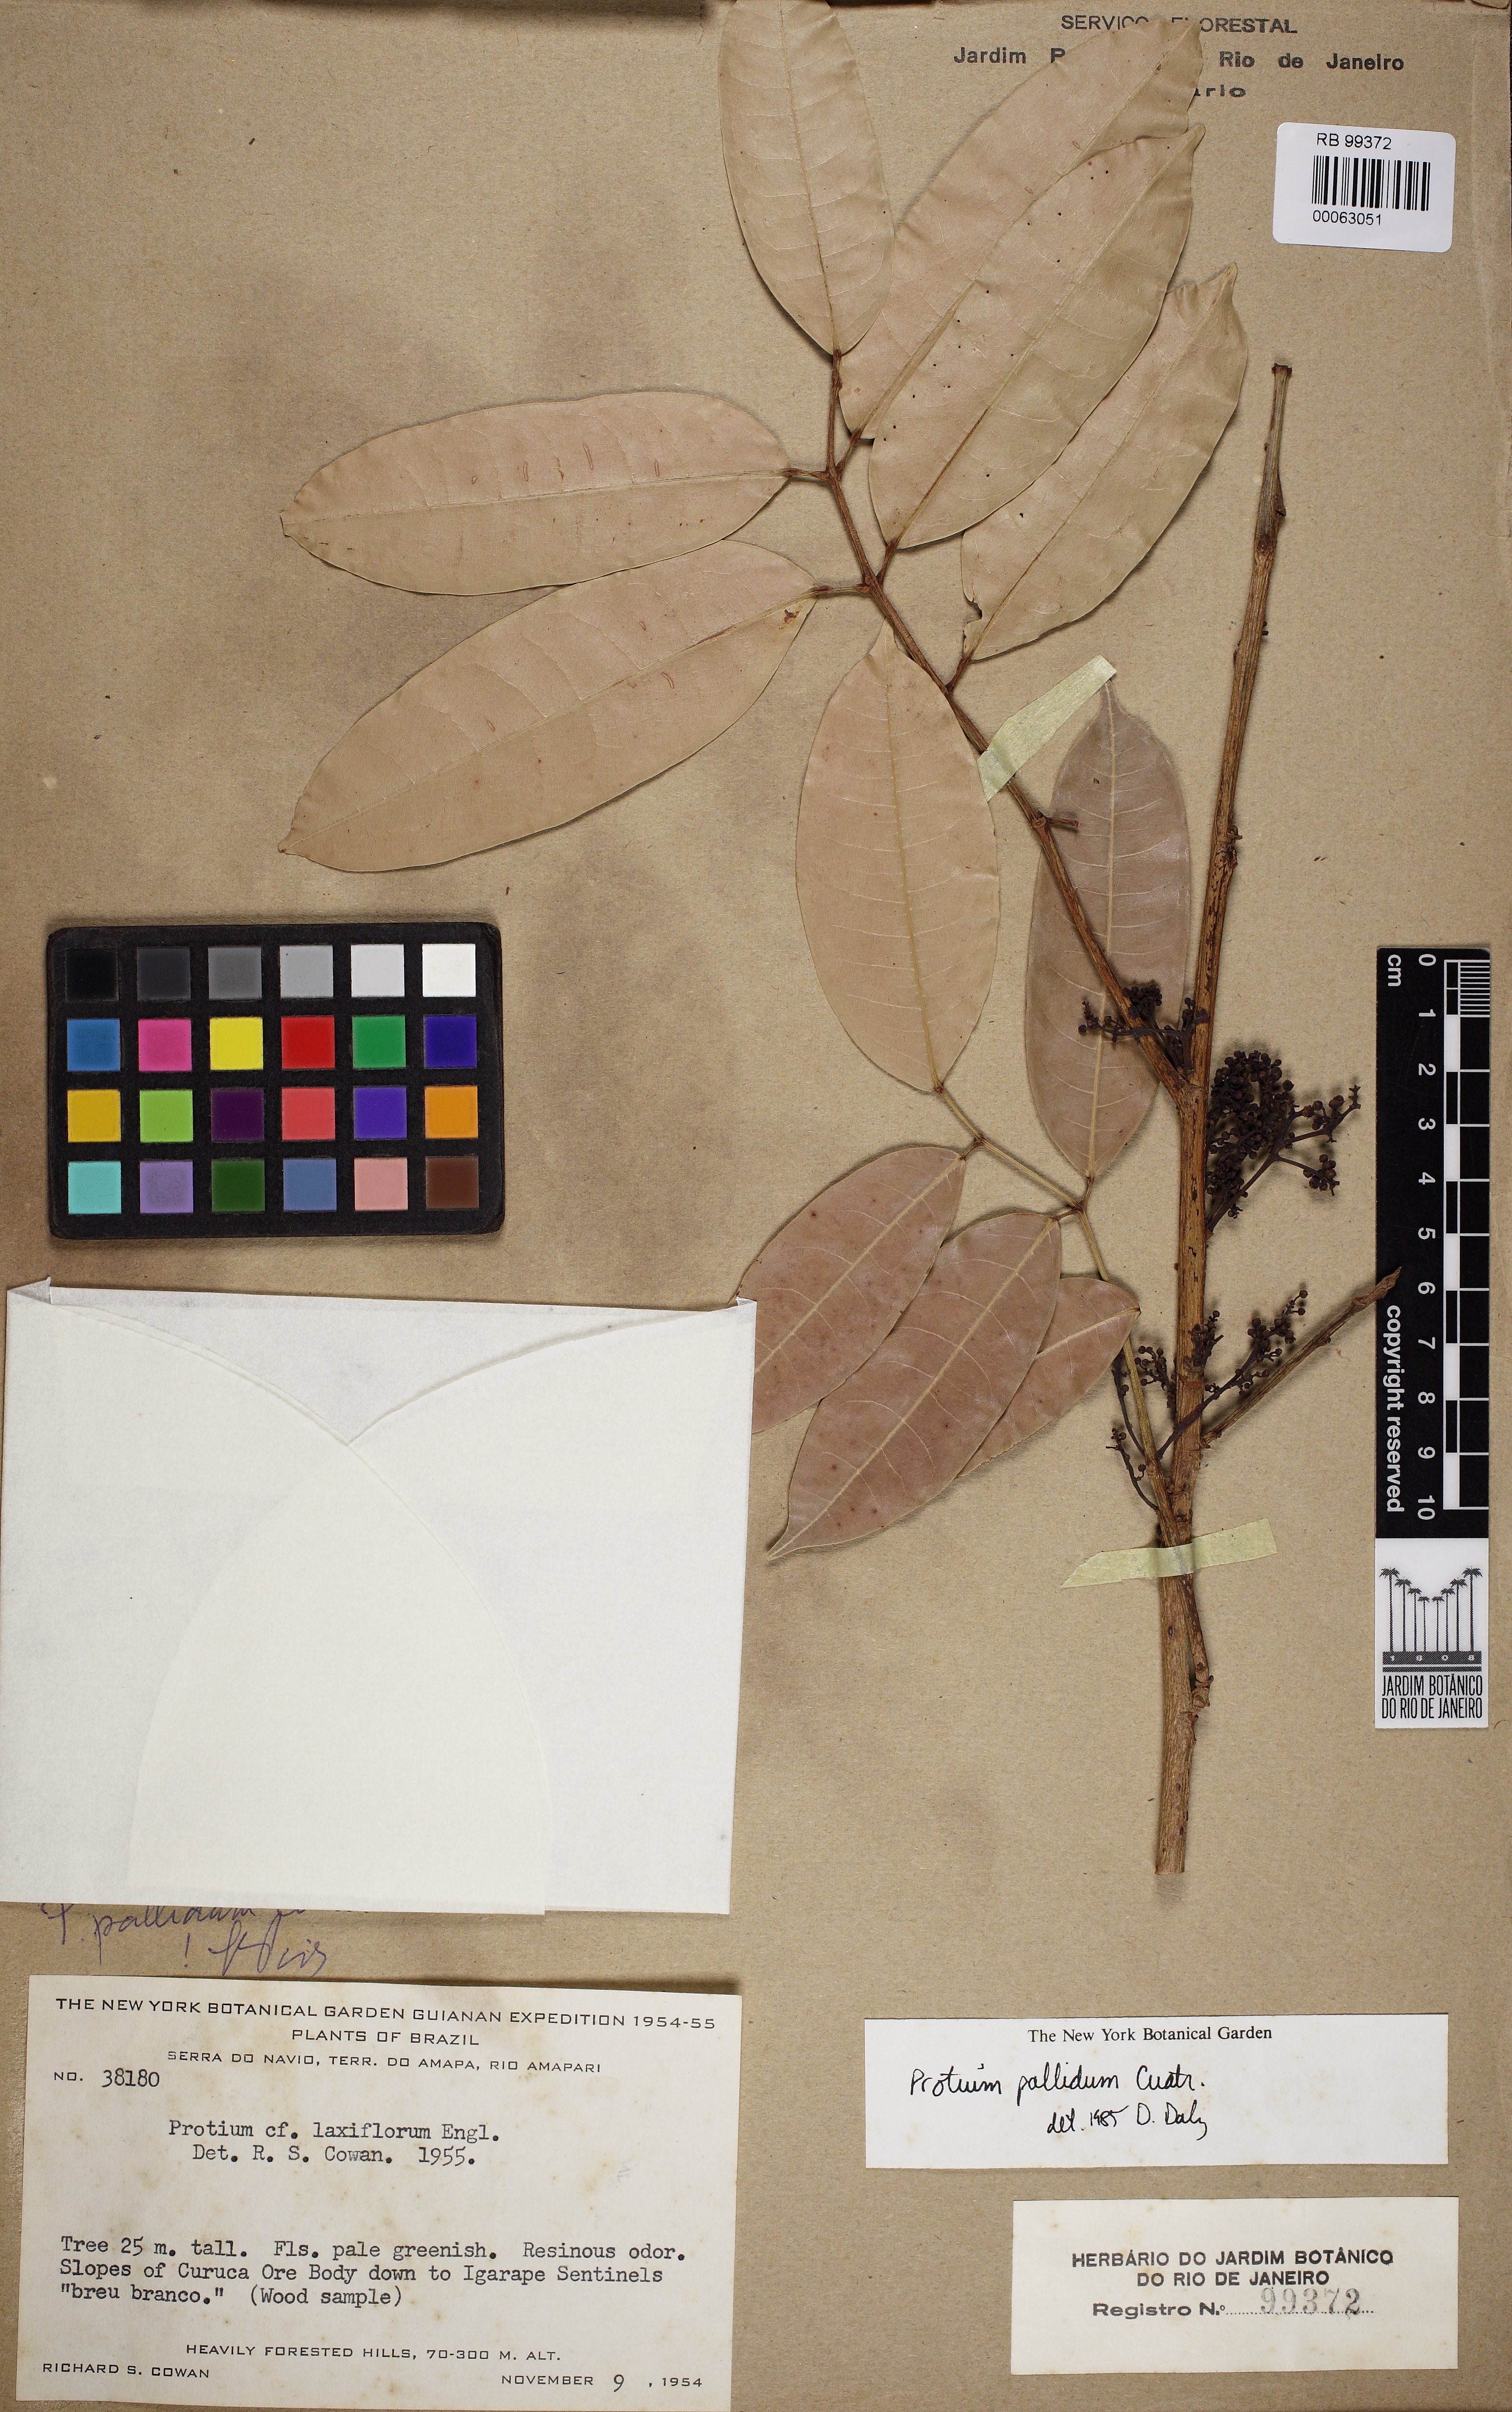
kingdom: Plantae
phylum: Tracheophyta
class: Magnoliopsida
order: Sapindales
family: Burseraceae
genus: Protium
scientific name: Protium pallidum
